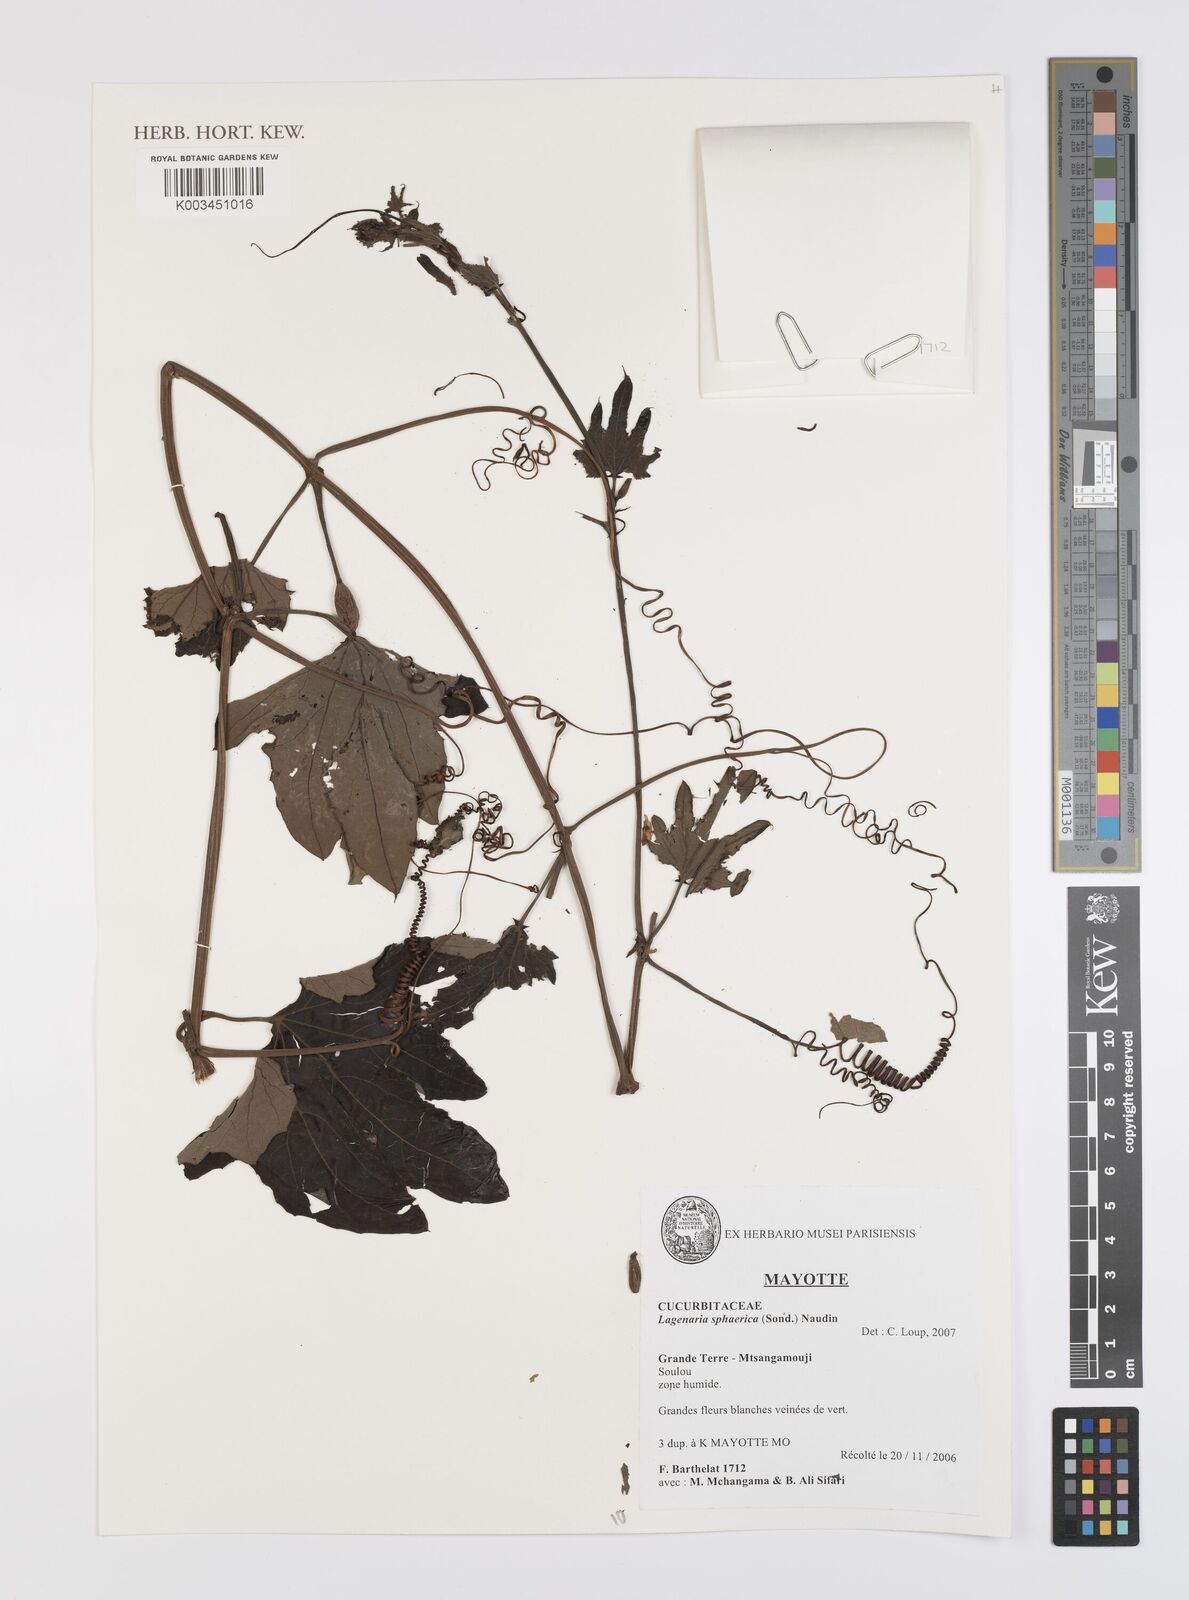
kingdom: Plantae
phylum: Tracheophyta
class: Magnoliopsida
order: Cucurbitales
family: Cucurbitaceae
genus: Lagenaria
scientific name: Lagenaria sphaerica
